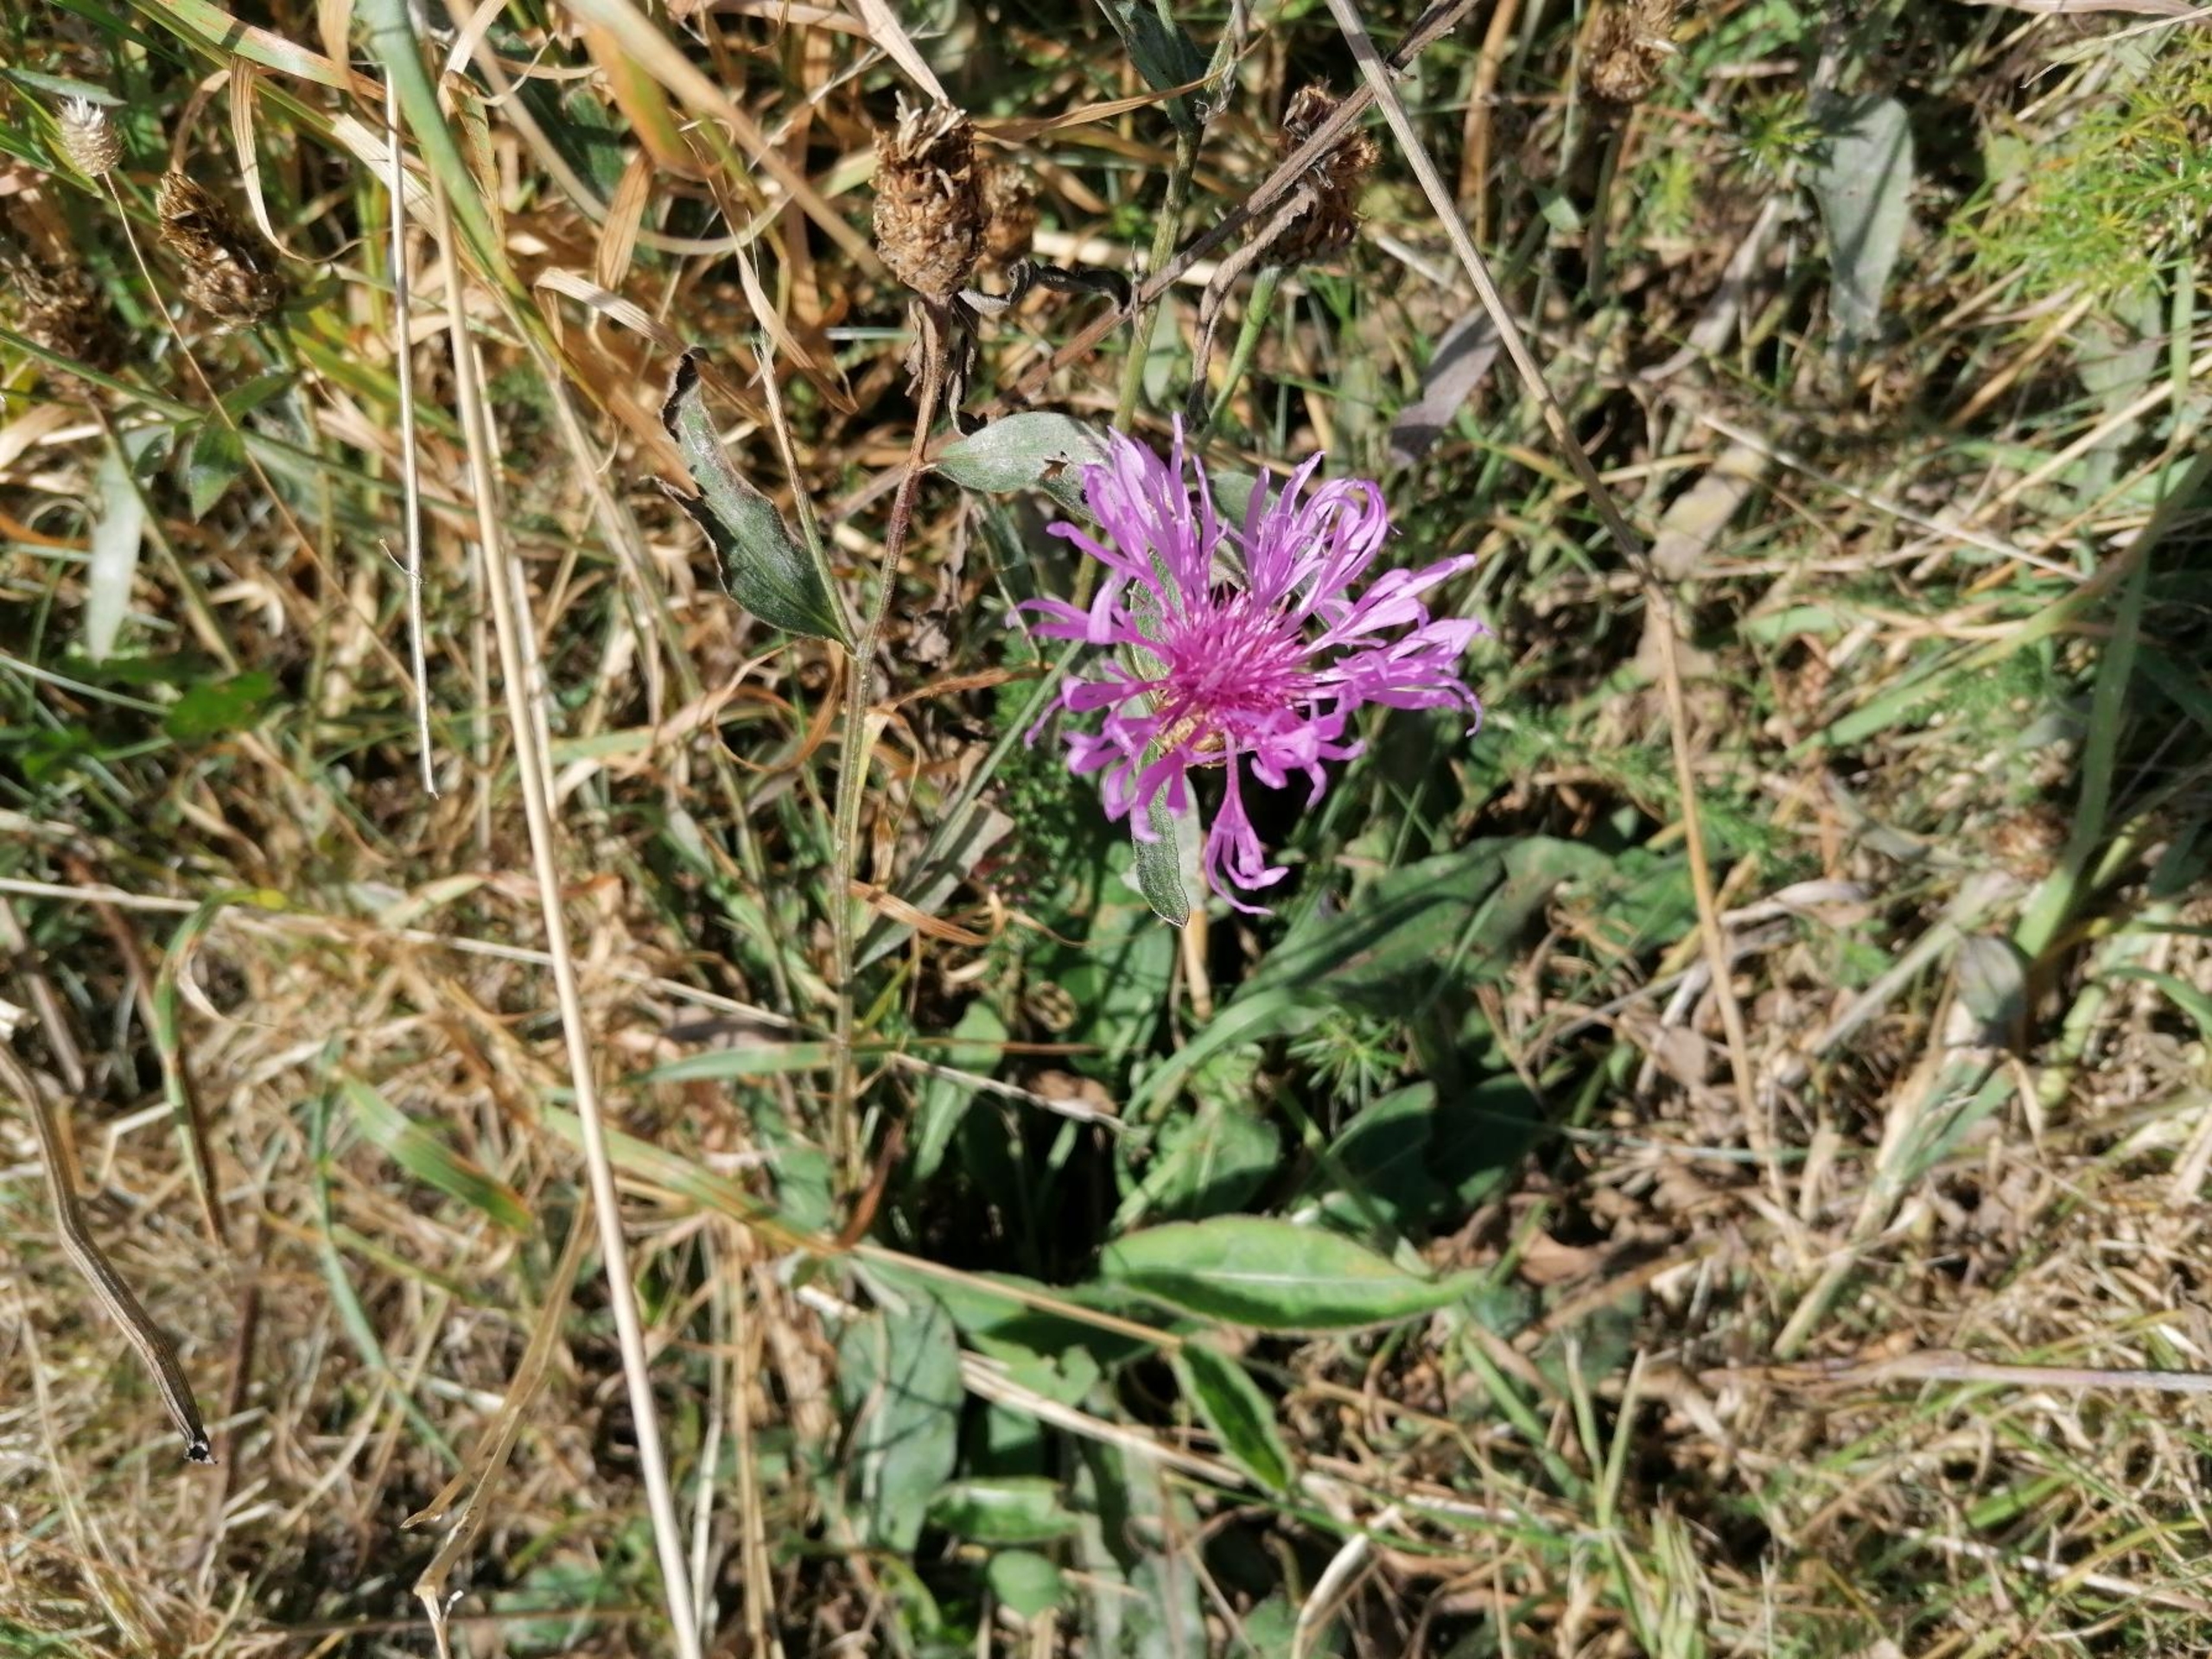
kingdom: Plantae
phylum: Tracheophyta
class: Magnoliopsida
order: Asterales
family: Asteraceae
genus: Centaurea
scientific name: Centaurea jacea
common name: Almindelig knopurt
